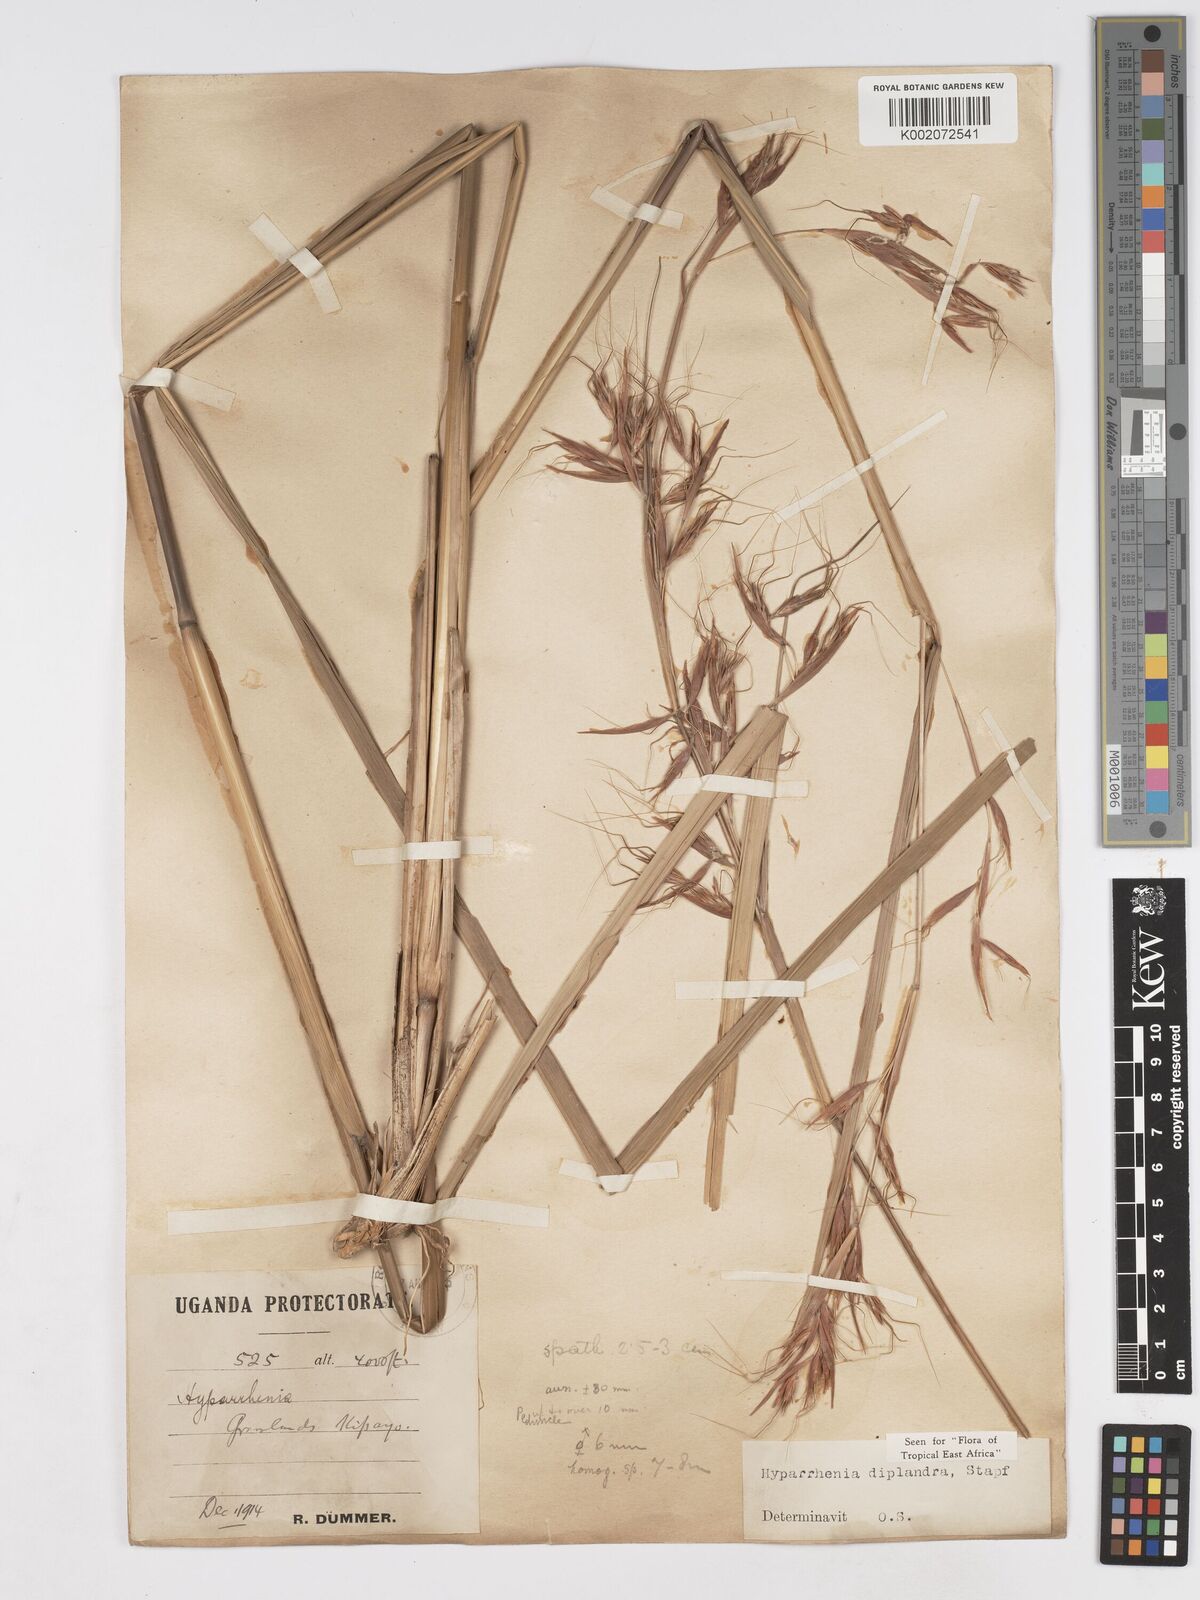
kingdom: Plantae
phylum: Tracheophyta
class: Liliopsida
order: Poales
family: Poaceae
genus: Hyparrhenia
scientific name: Hyparrhenia diplandra
